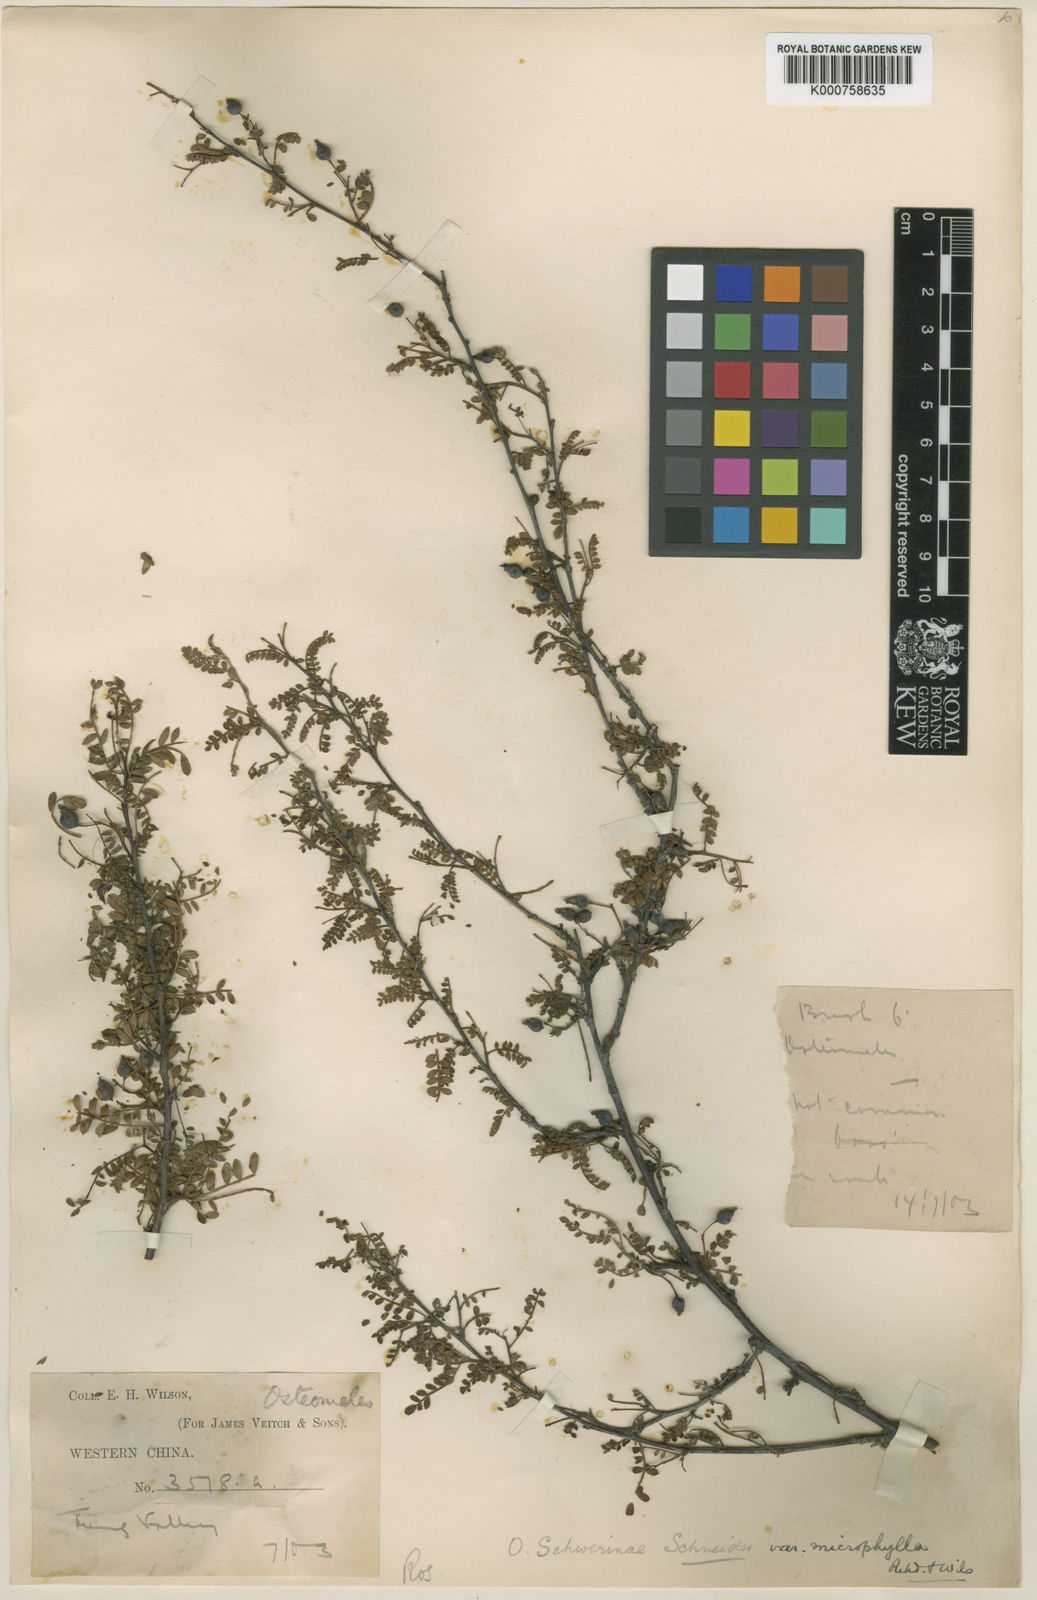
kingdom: Plantae
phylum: Tracheophyta
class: Magnoliopsida
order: Rosales
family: Rosaceae
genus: Osteomeles
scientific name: Osteomeles schwerinae
